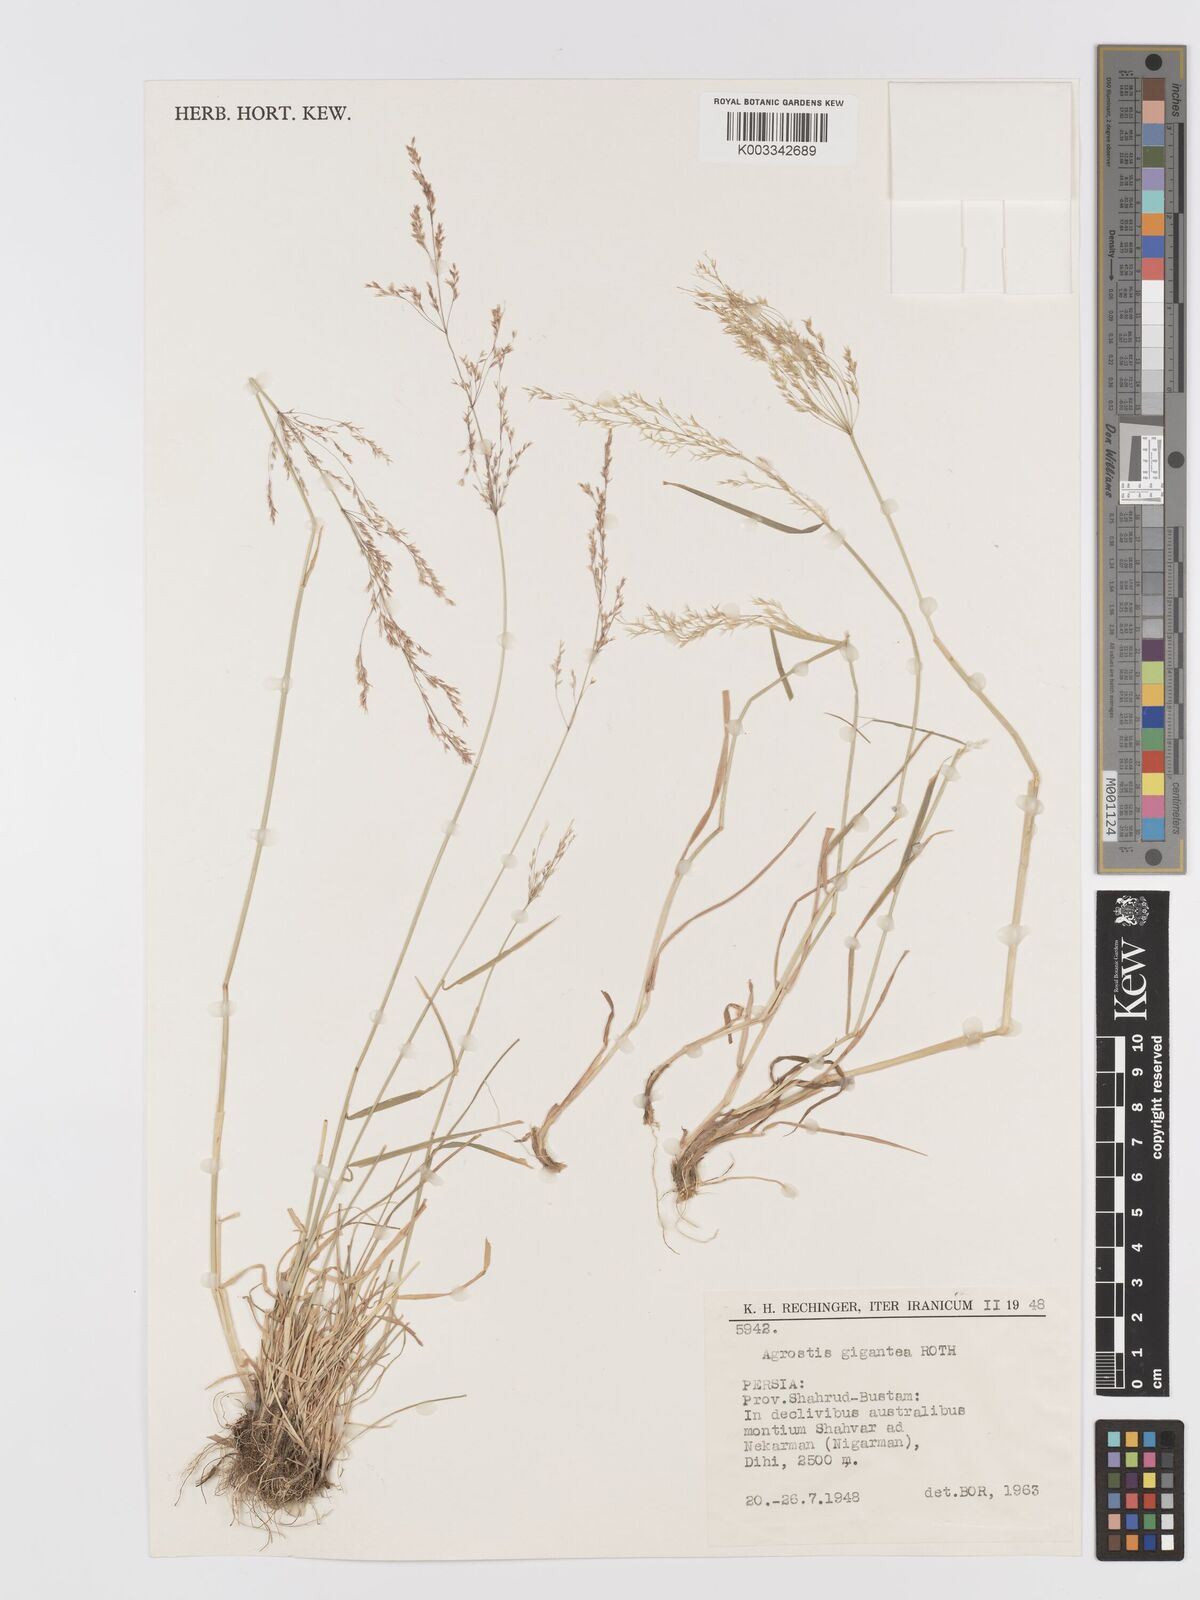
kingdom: Plantae
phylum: Tracheophyta
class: Liliopsida
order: Poales
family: Poaceae
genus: Agrostis
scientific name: Agrostis gigantea
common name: Black bent
